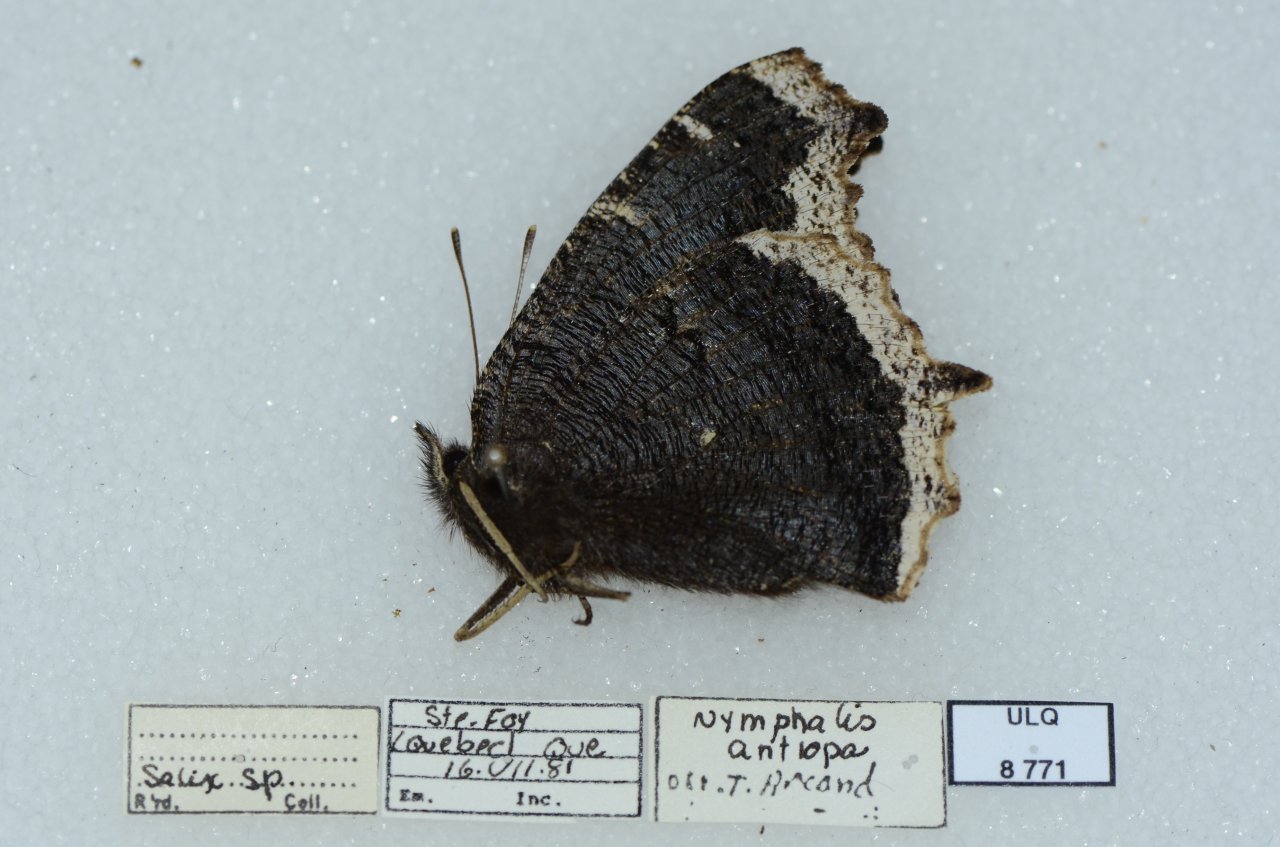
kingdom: Animalia
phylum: Arthropoda
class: Insecta
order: Lepidoptera
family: Nymphalidae
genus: Nymphalis
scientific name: Nymphalis antiopa
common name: Mourning Cloak
